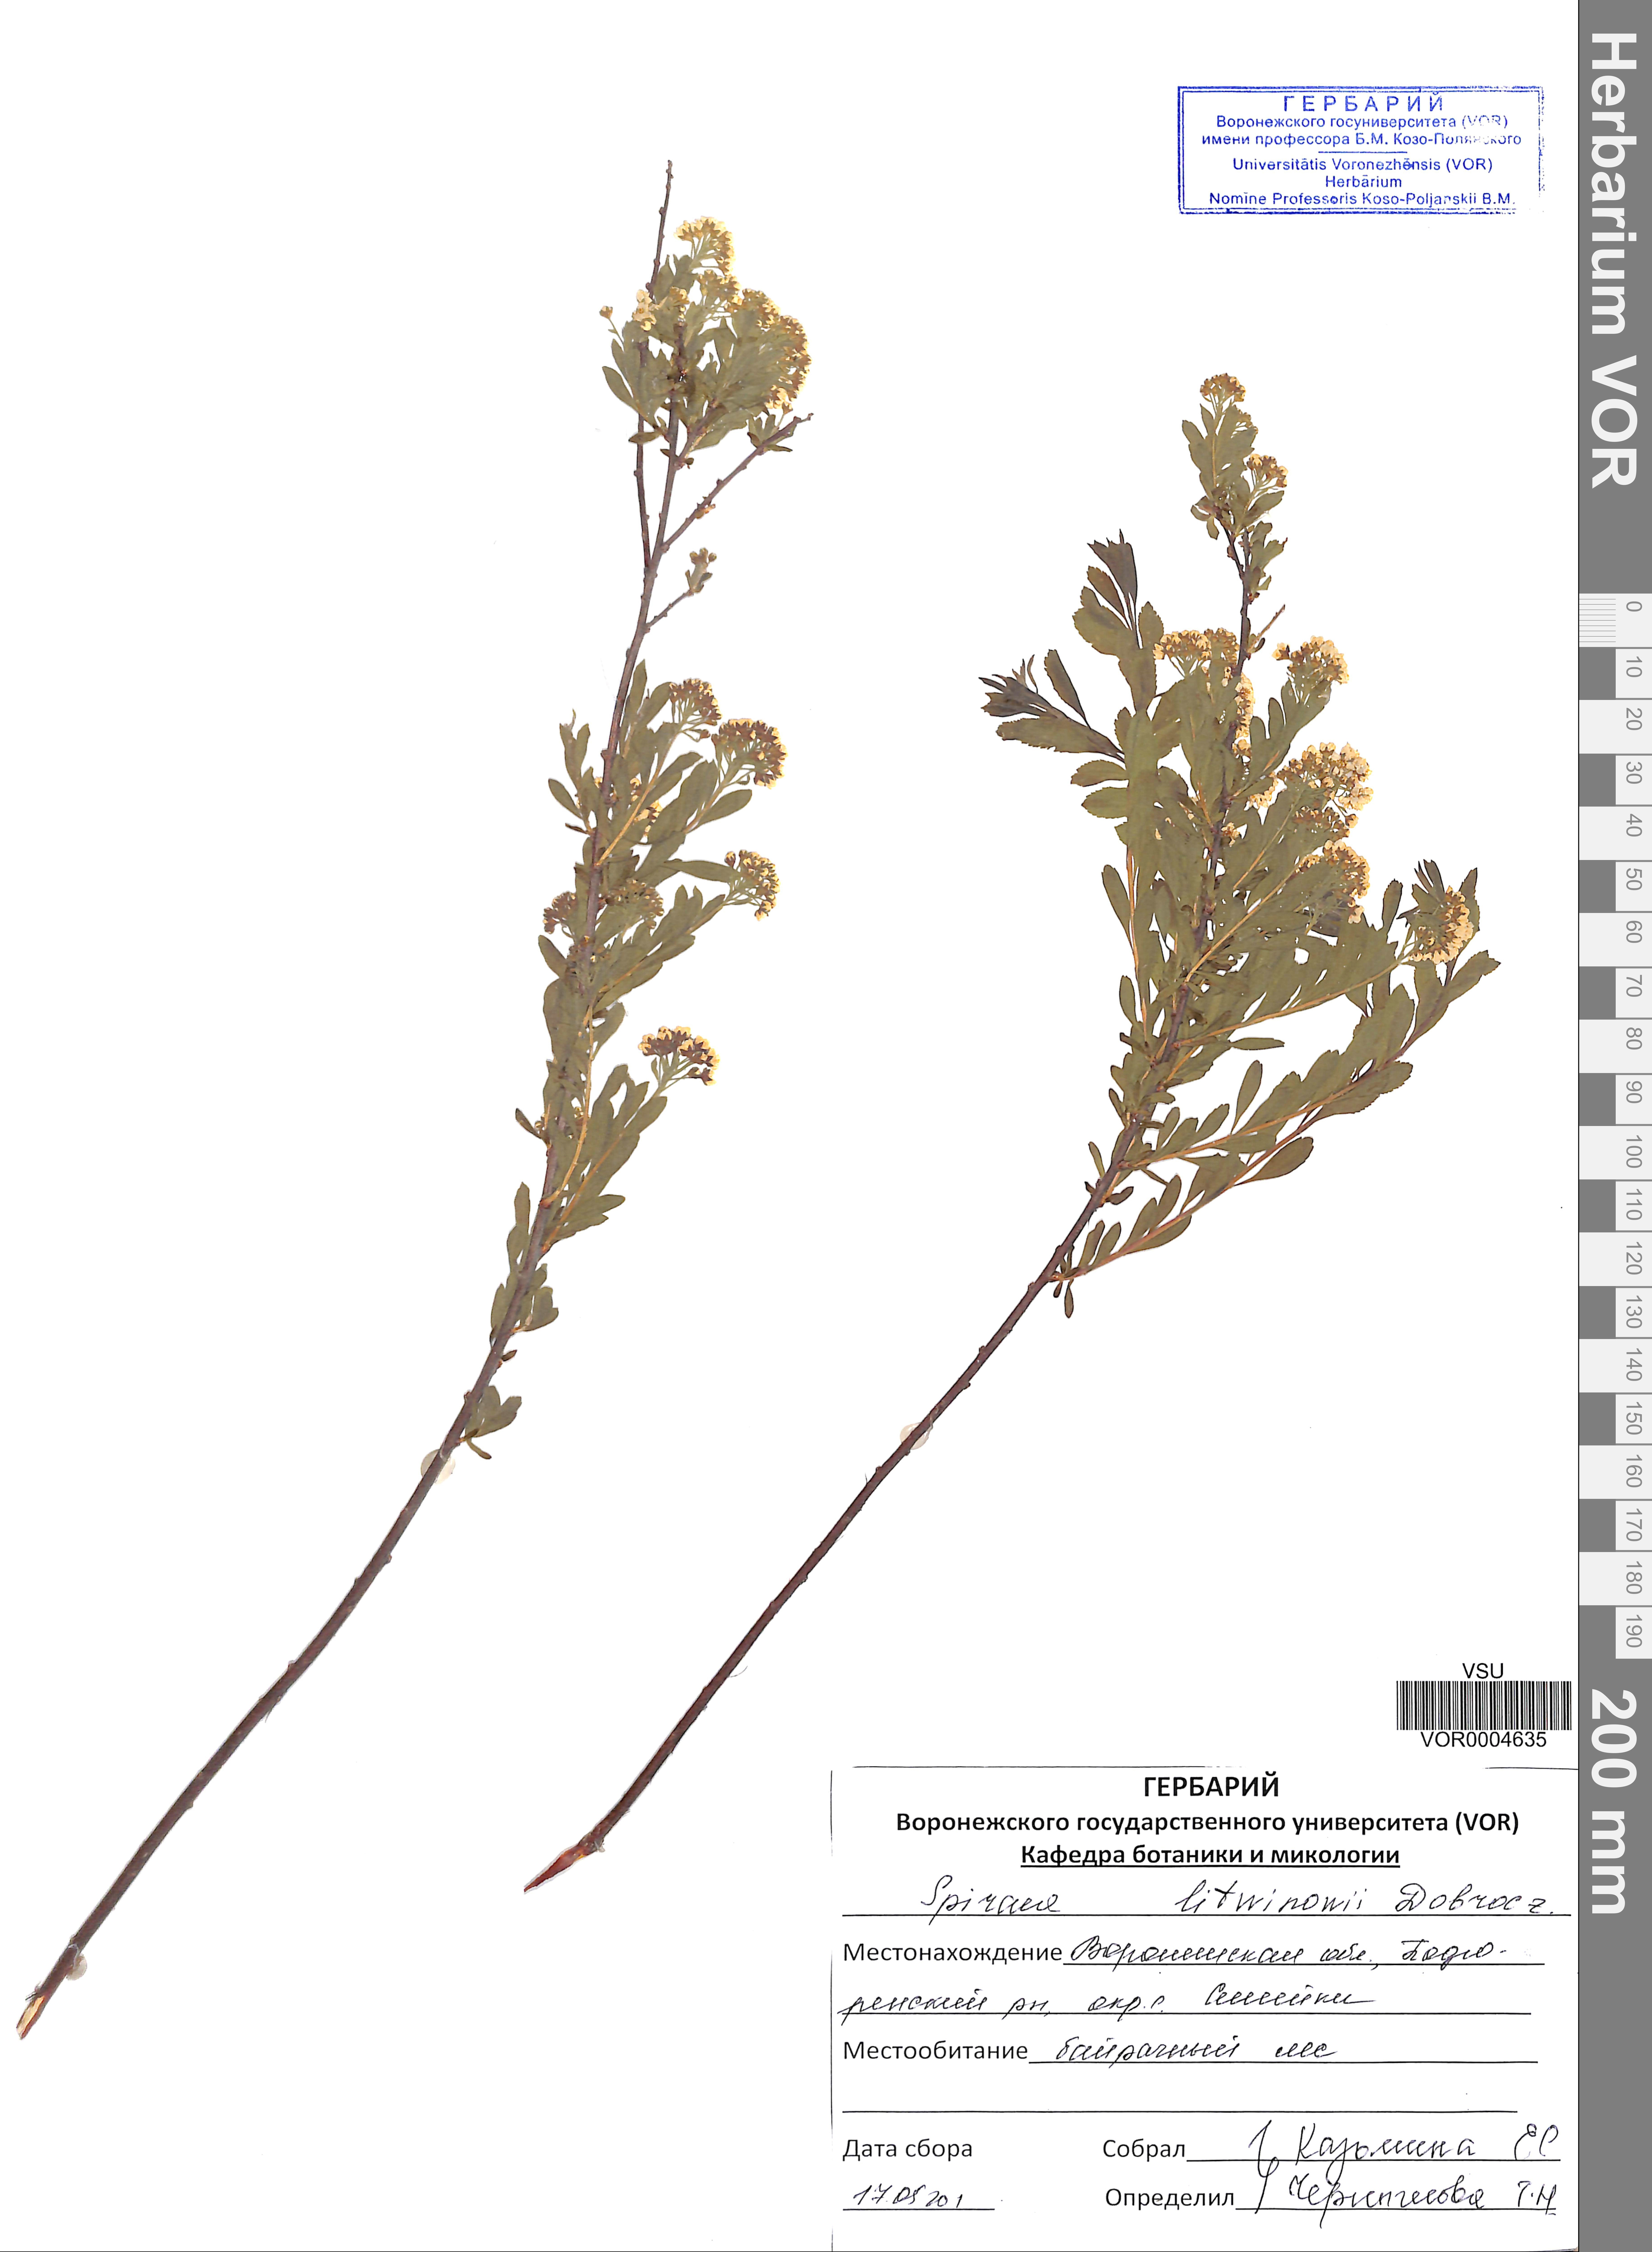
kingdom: Plantae
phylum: Tracheophyta
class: Magnoliopsida
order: Rosales
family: Rosaceae
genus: Spiraea
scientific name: Spiraea crenata
